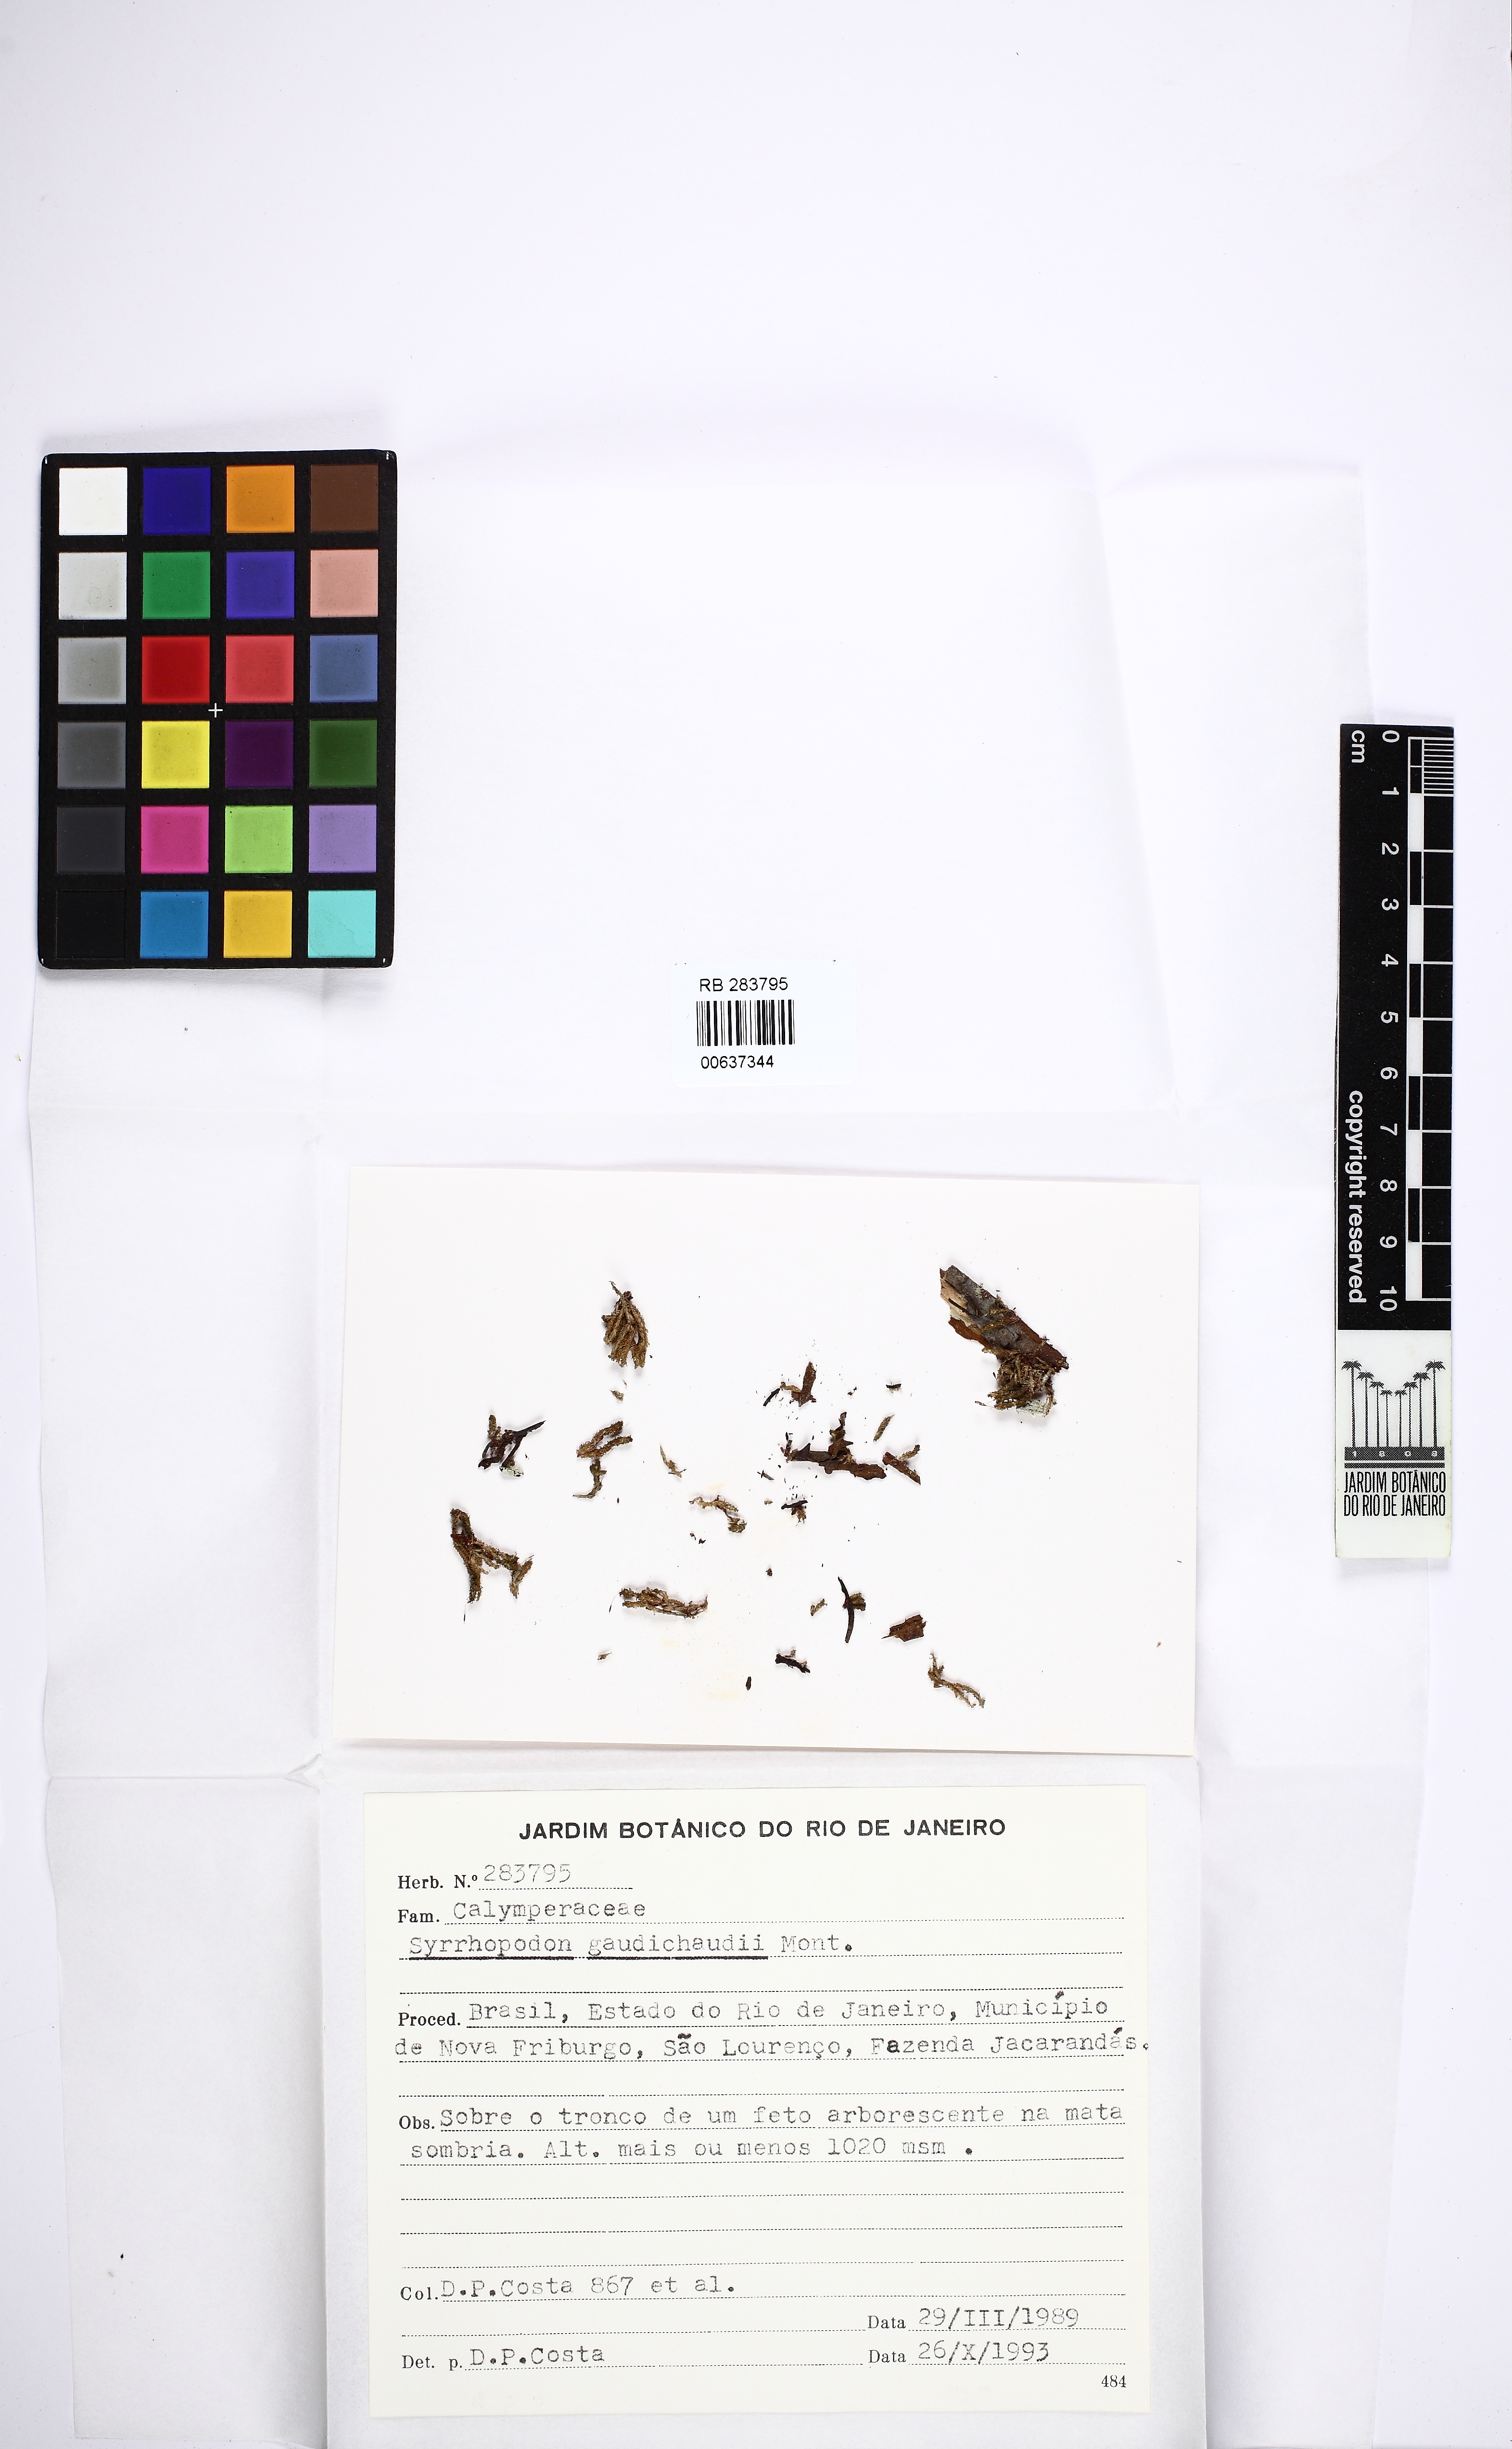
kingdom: Plantae
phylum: Bryophyta
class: Bryopsida
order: Dicranales
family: Calymperaceae
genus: Syrrhopodon
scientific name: Syrrhopodon gaudichaudii
